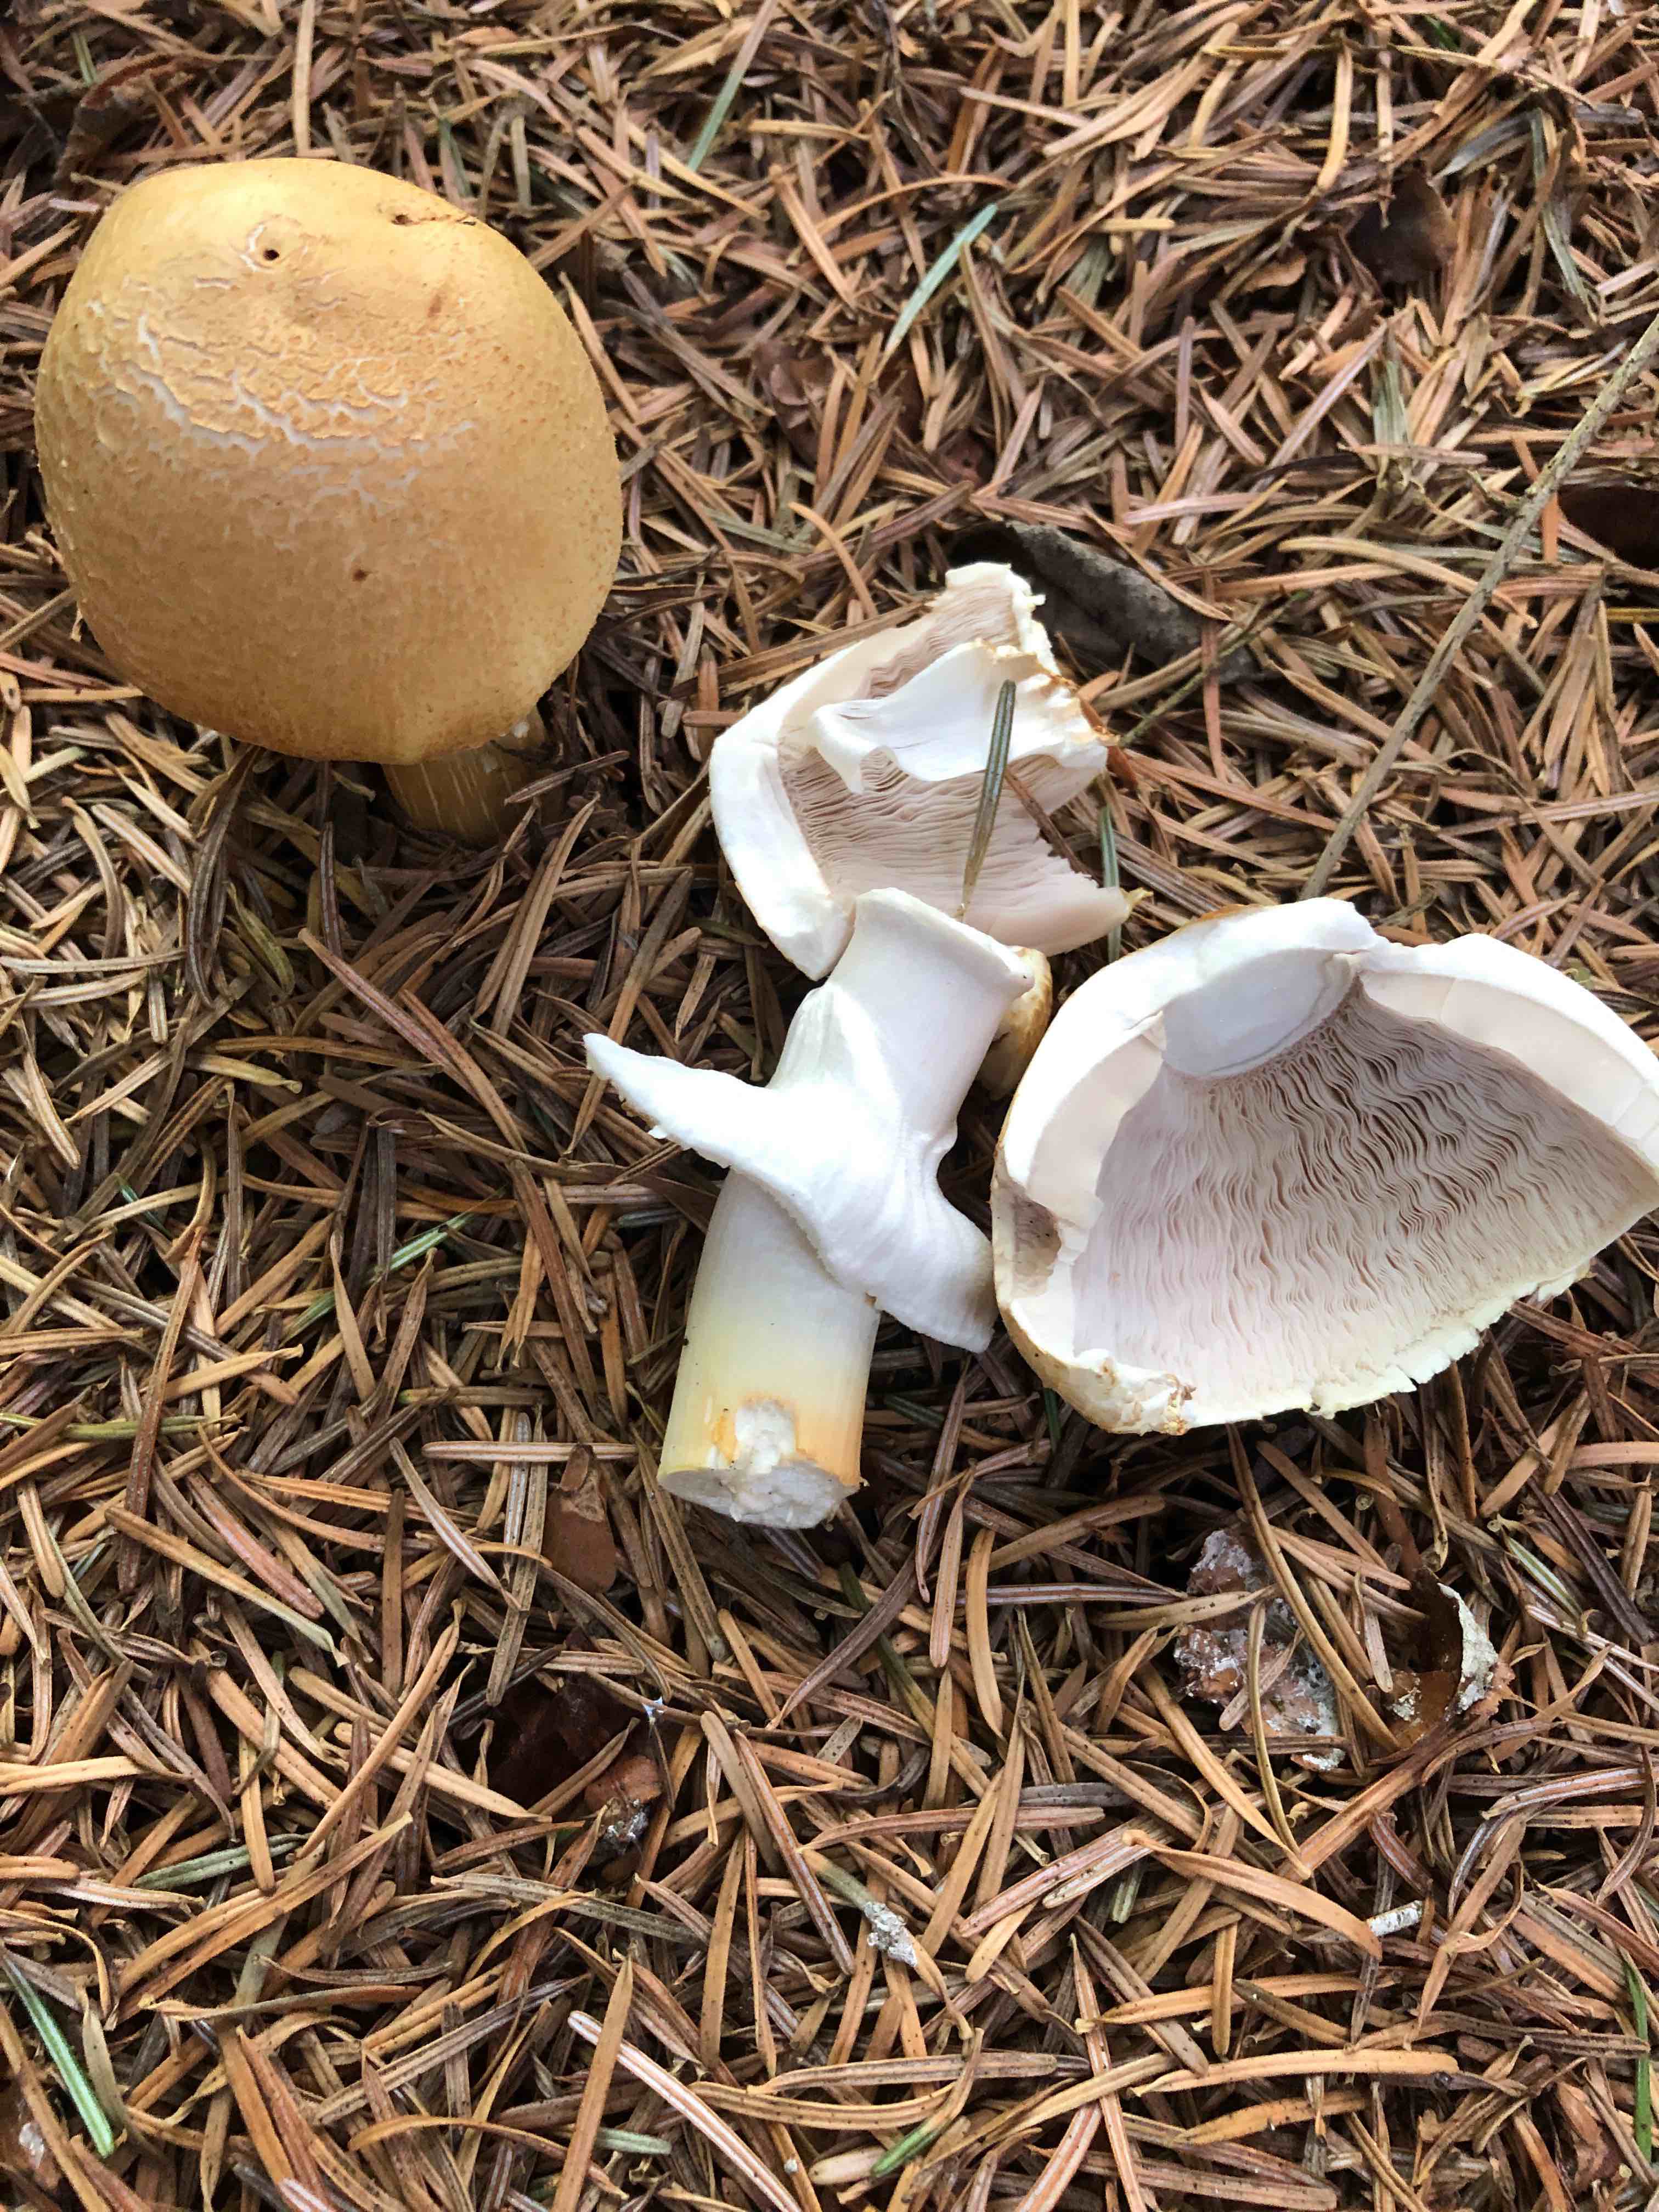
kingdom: Fungi
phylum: Basidiomycota
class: Agaricomycetes
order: Agaricales
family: Agaricaceae
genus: Agaricus
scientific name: Agaricus sylvicola
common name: gulhvid champignon
